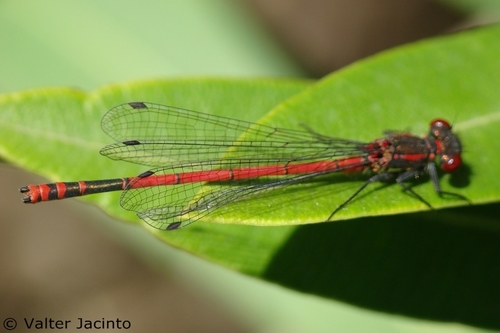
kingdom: Animalia
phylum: Arthropoda
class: Insecta
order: Odonata
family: Coenagrionidae
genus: Pyrrhosoma
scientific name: Pyrrhosoma nymphula
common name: Large red damsel
